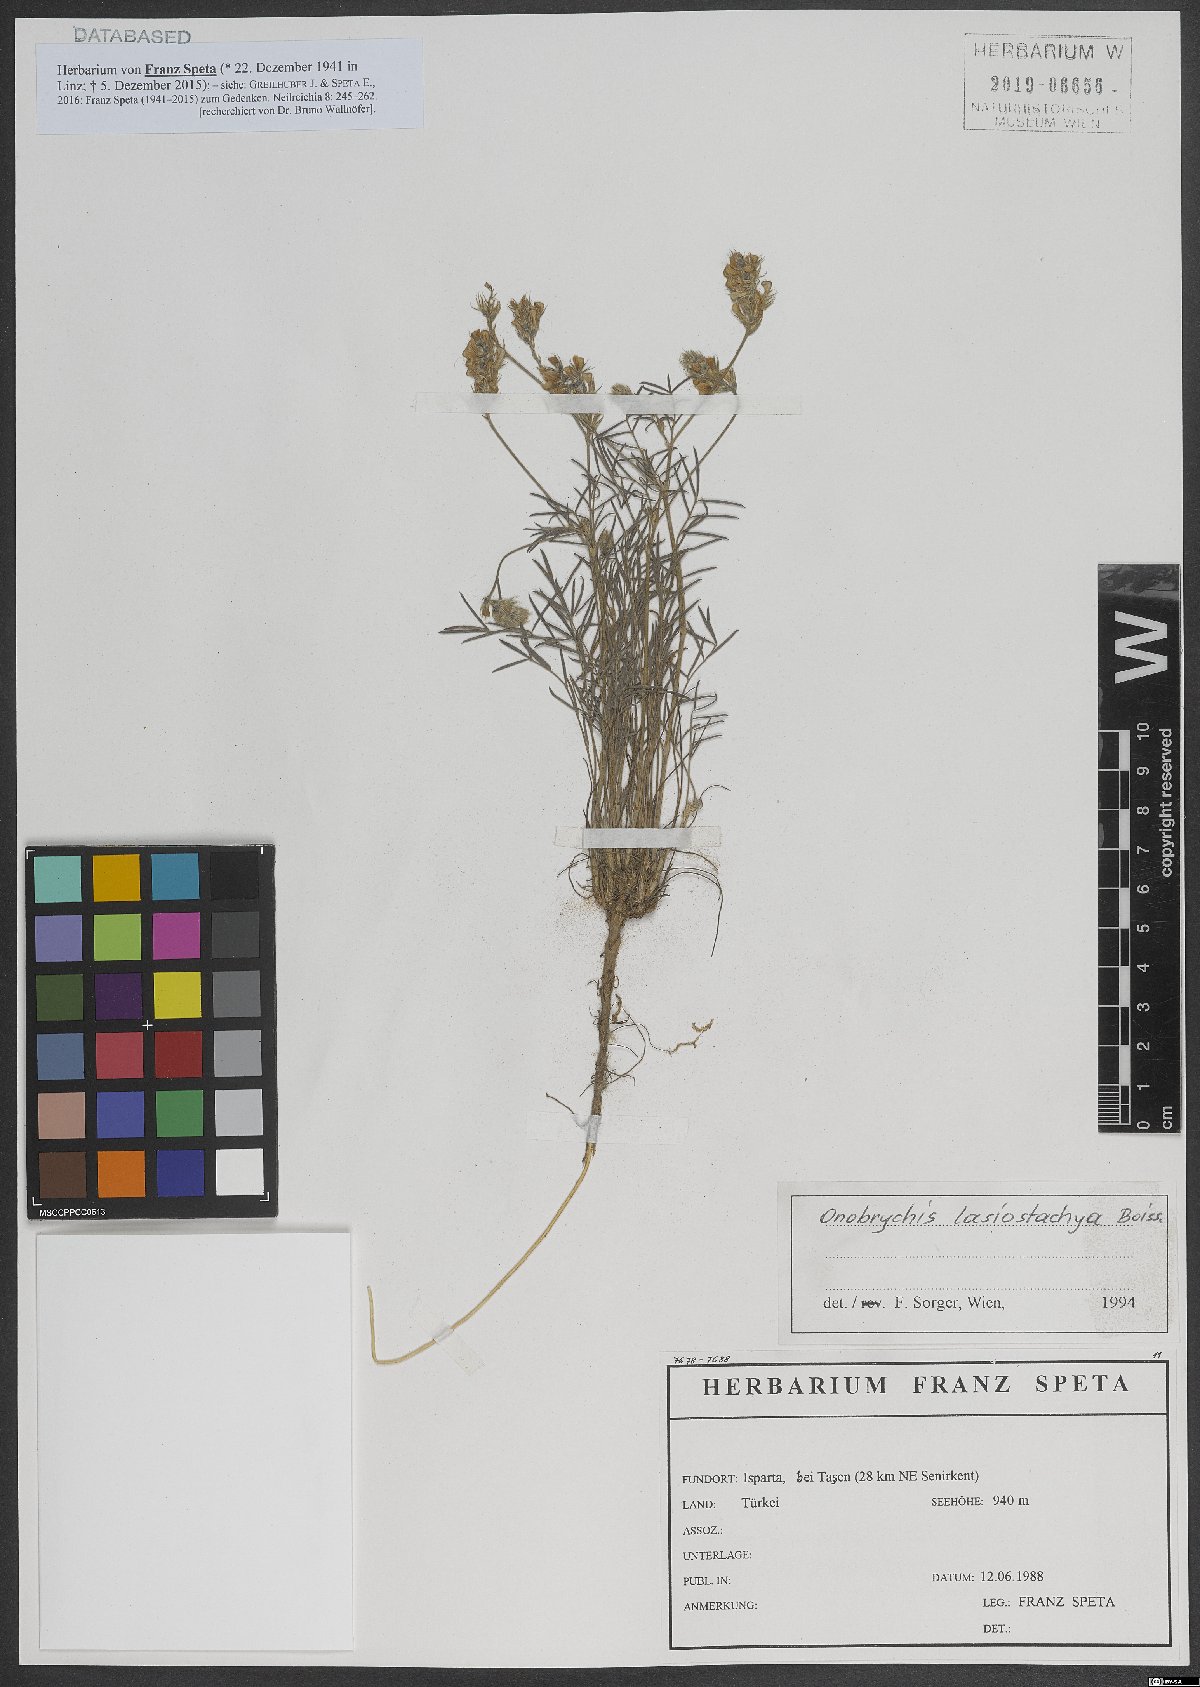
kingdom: Plantae
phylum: Tracheophyta
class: Magnoliopsida
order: Fabales
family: Fabaceae
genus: Onobrychis
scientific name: Onobrychis arenaria
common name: Sand esparcet
